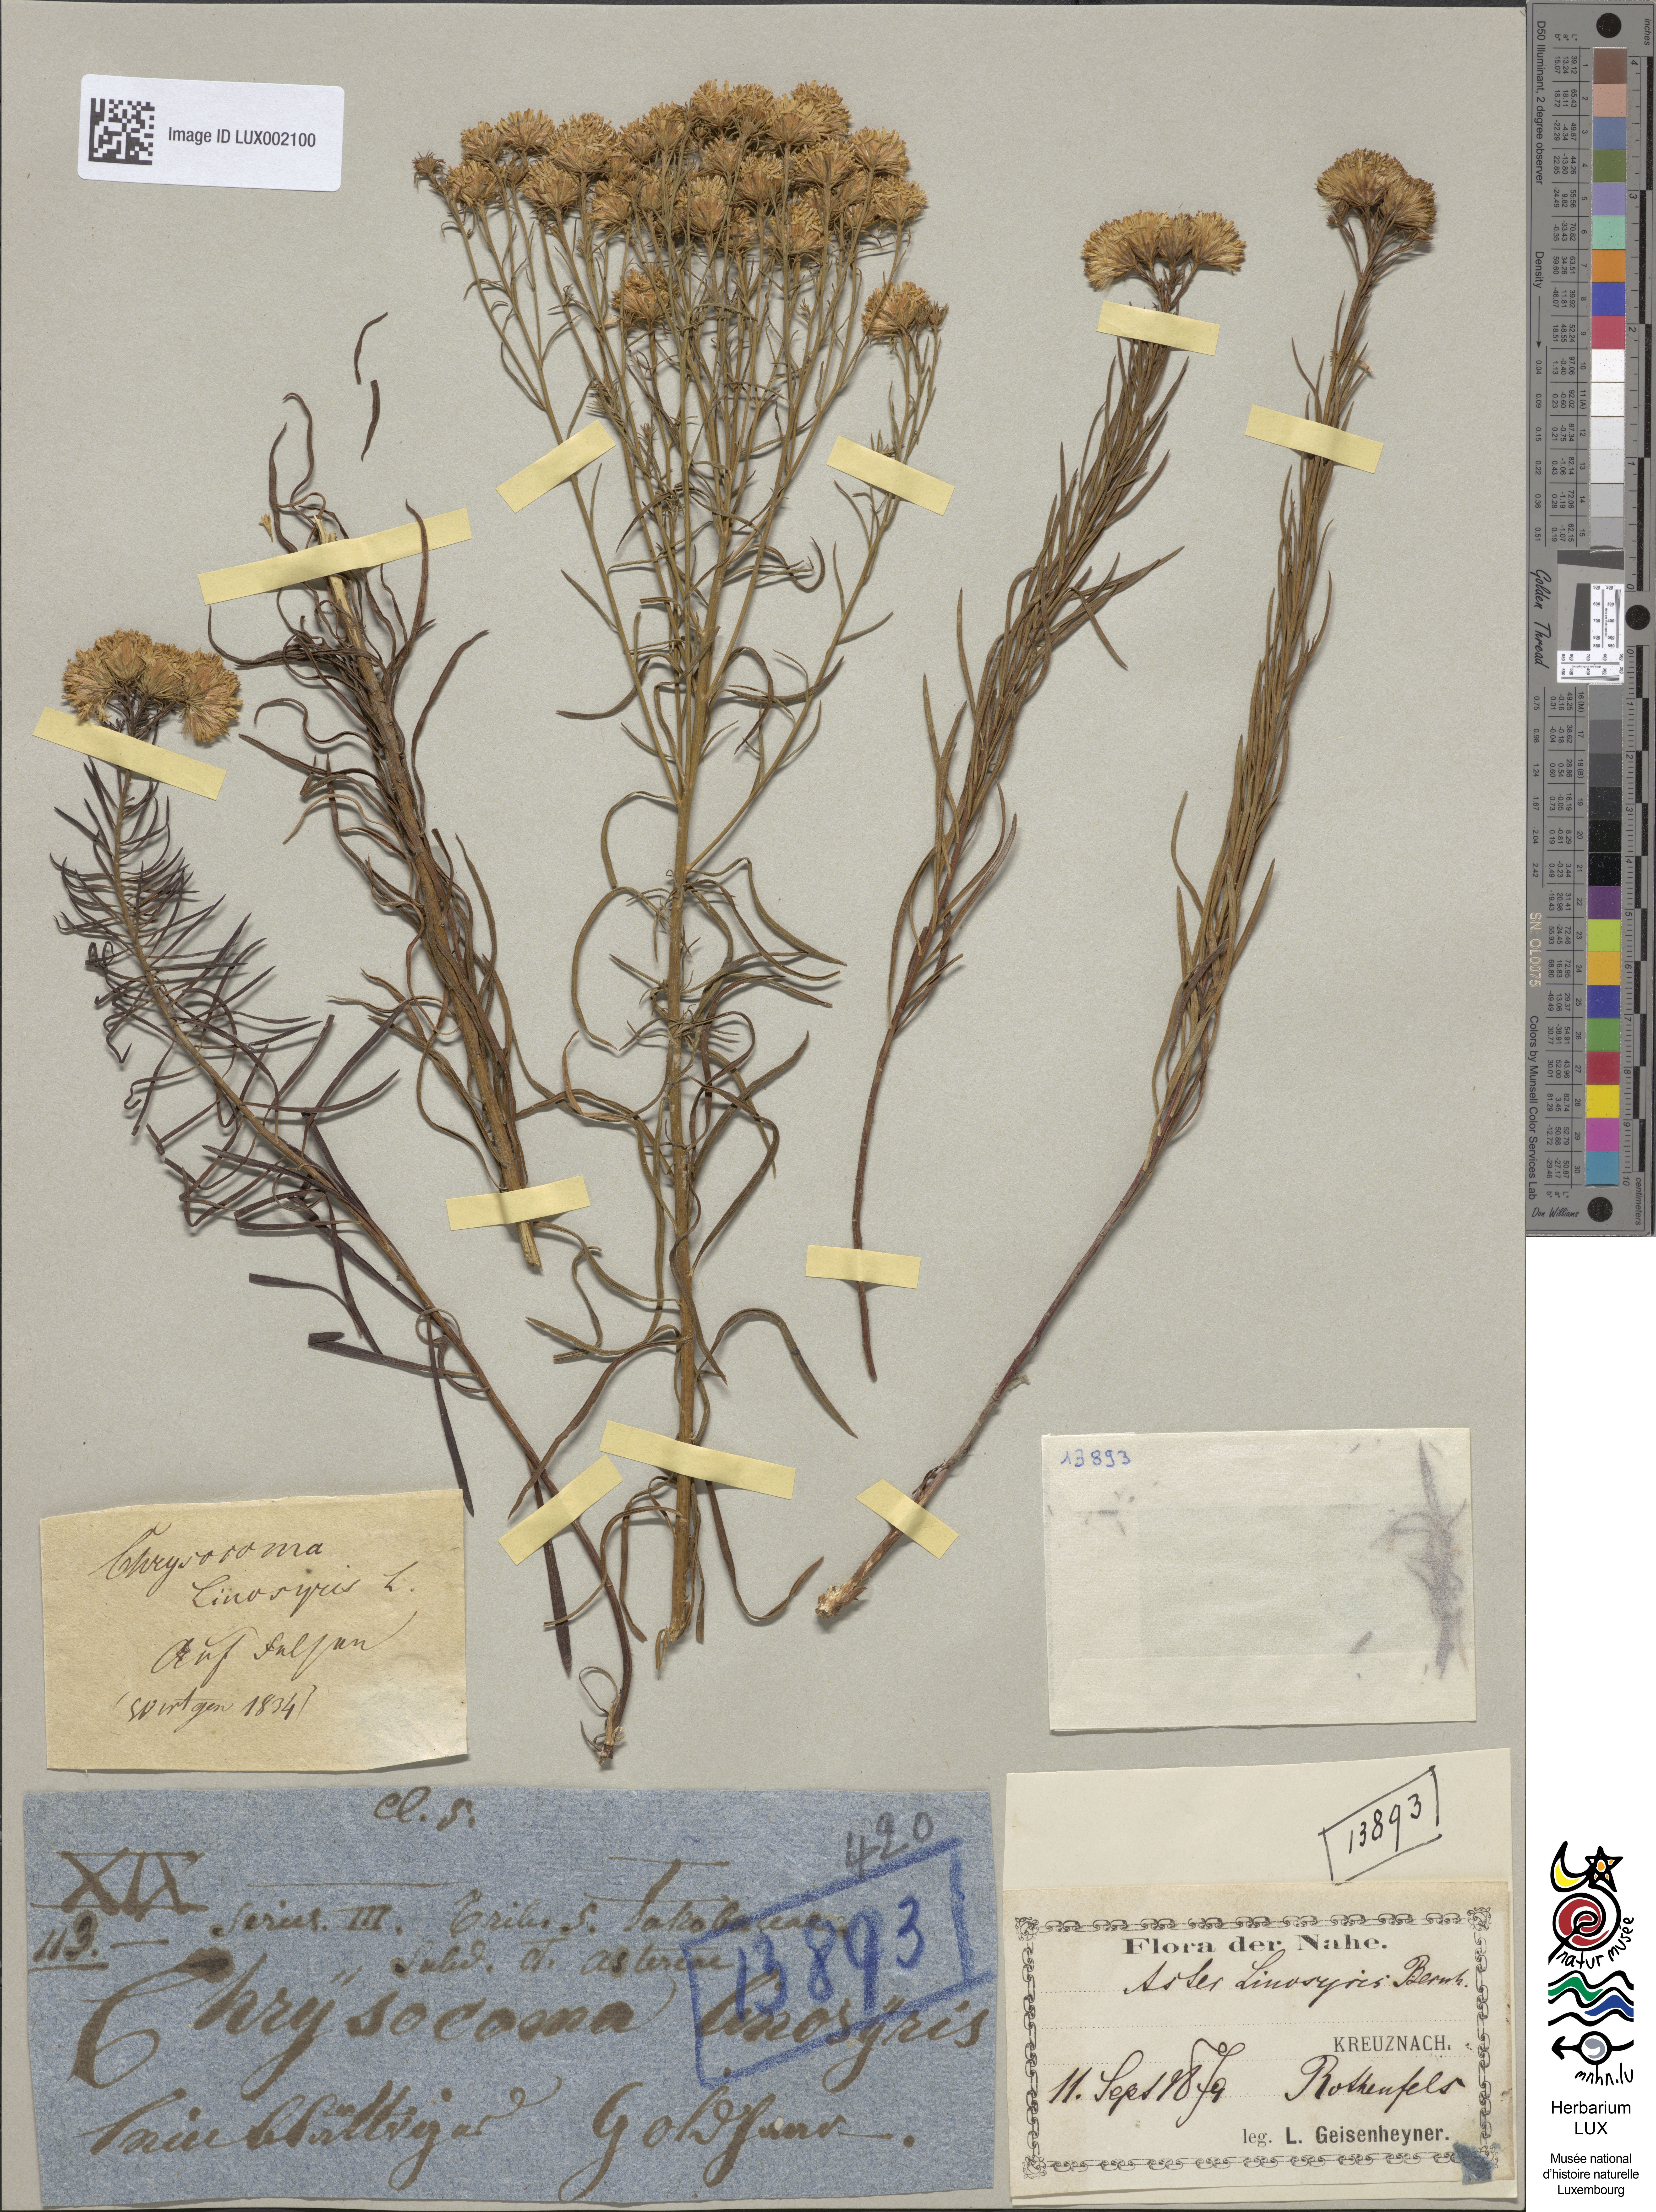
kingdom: Plantae
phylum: Tracheophyta
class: Magnoliopsida
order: Asterales
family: Asteraceae
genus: Galatella
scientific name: Galatella linosyris
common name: Goldilocks aster
